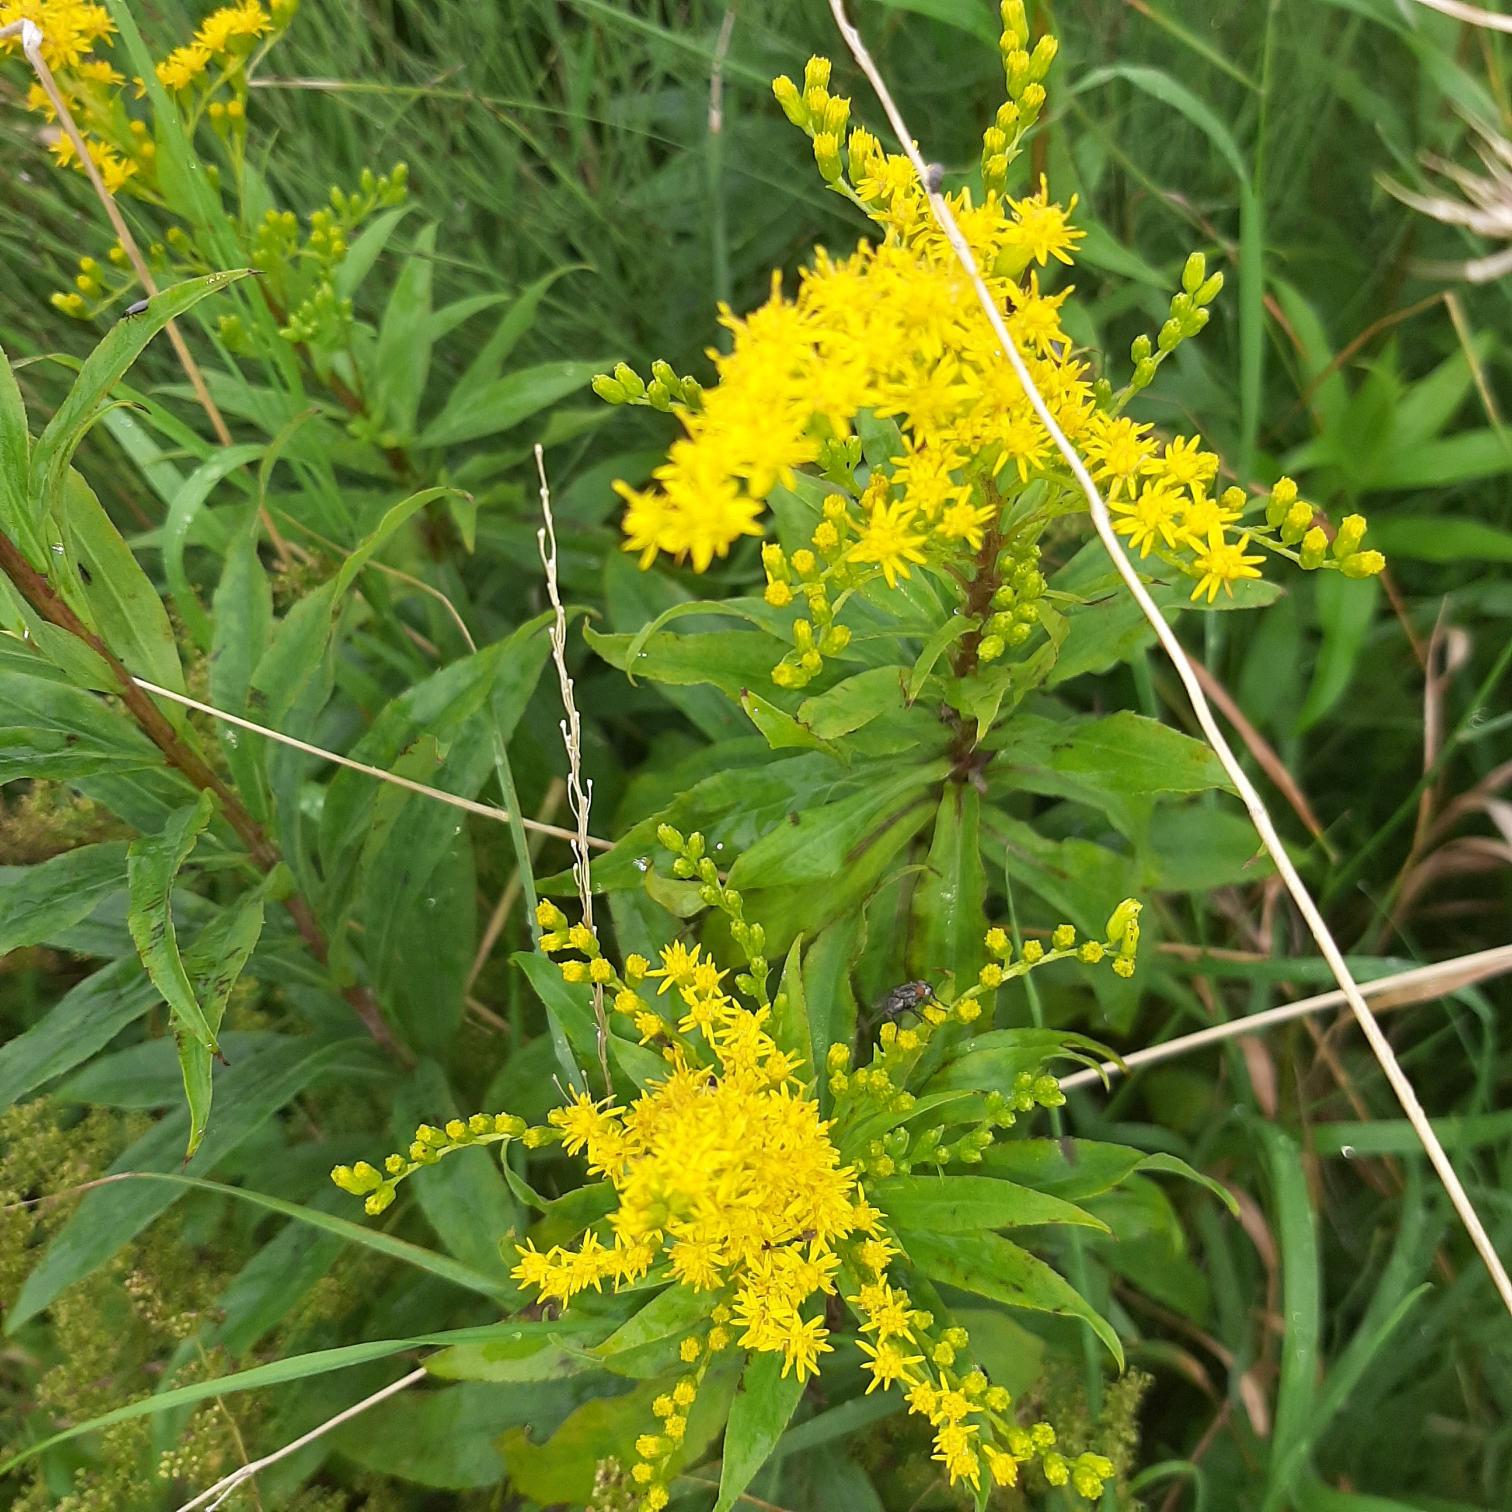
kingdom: Plantae
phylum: Tracheophyta
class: Magnoliopsida
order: Asterales
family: Asteraceae
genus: Solidago
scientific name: Solidago gigantea
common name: Sildig gyldenris
